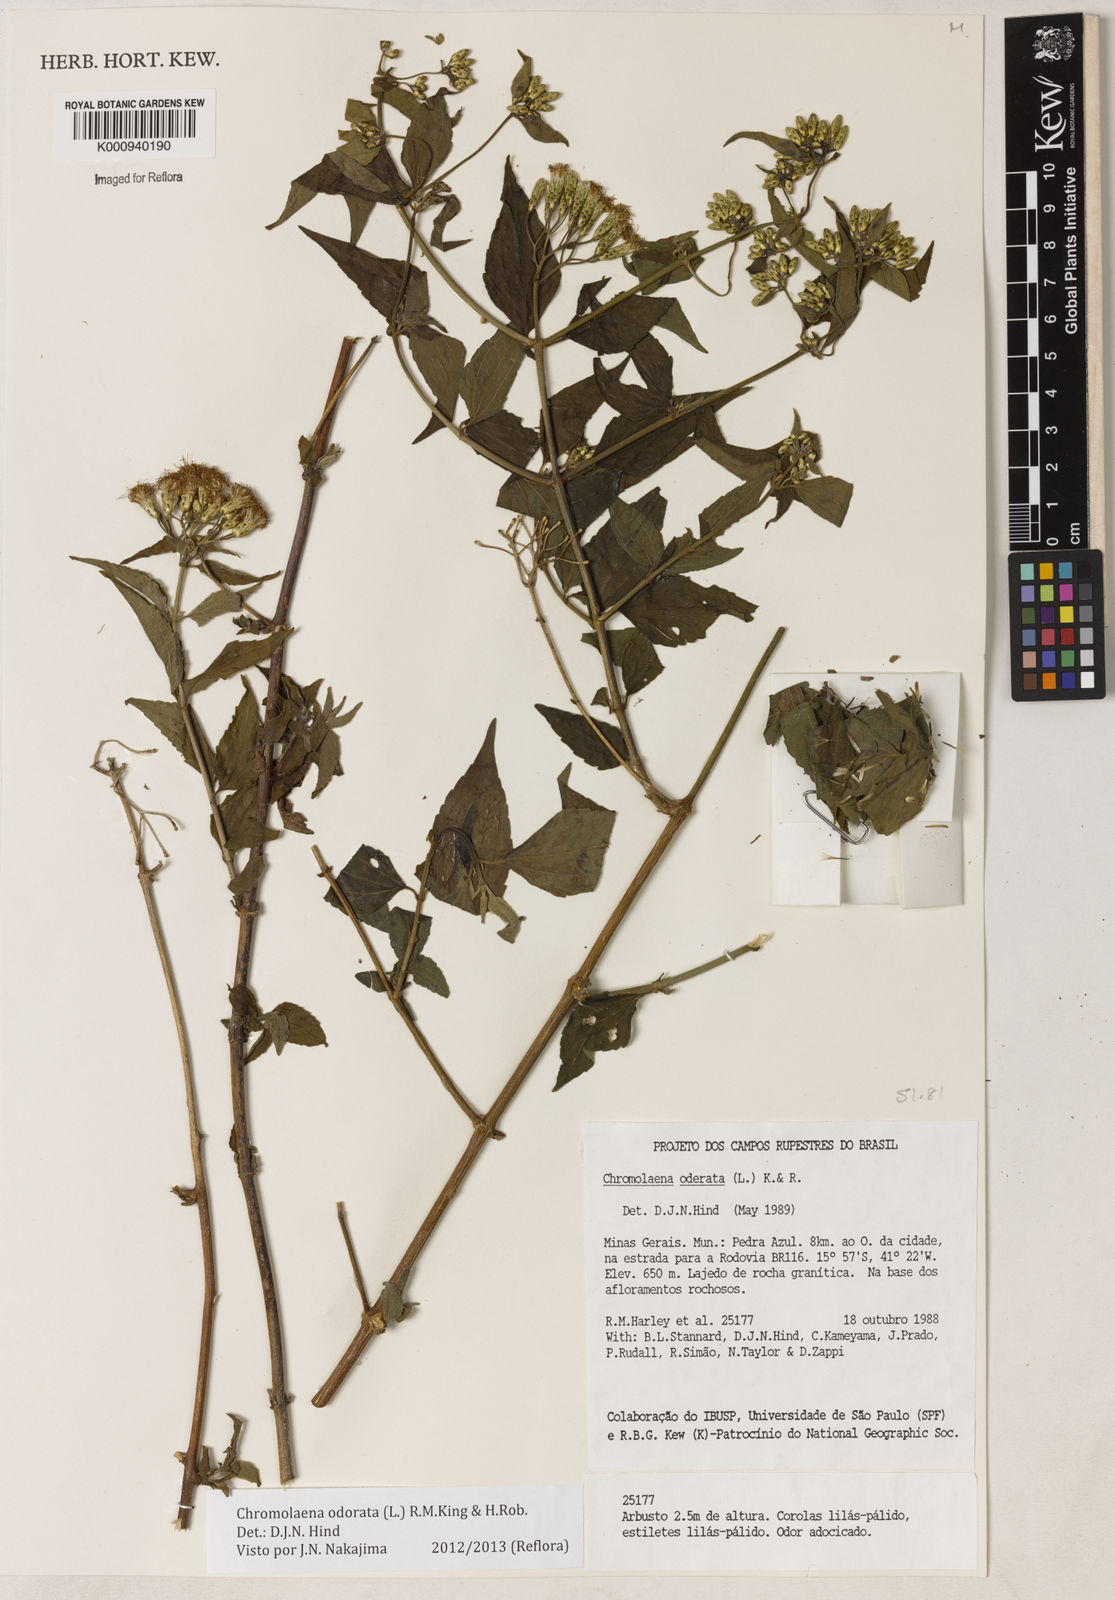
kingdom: Plantae
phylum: Tracheophyta
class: Magnoliopsida
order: Asterales
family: Asteraceae
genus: Chromolaena
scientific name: Chromolaena odorata
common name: Siamweed
